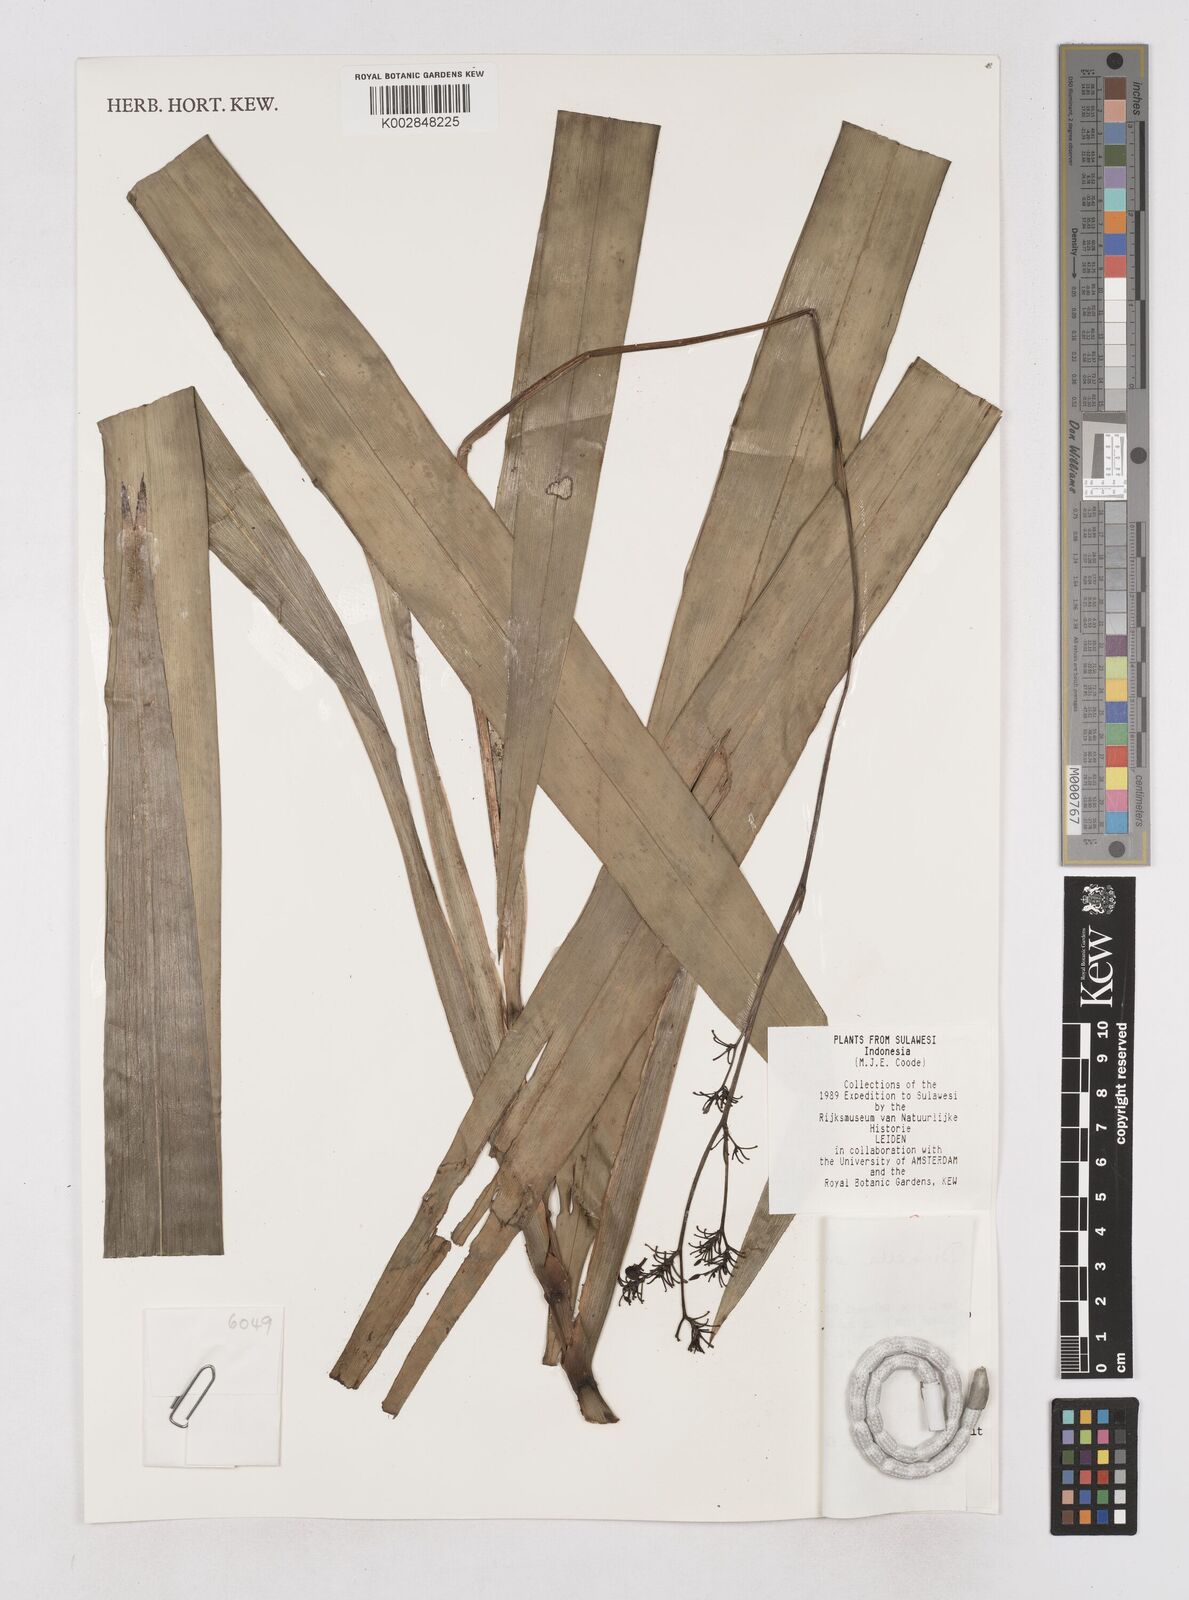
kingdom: Plantae
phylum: Tracheophyta
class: Liliopsida
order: Asparagales
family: Asphodelaceae
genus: Dianella
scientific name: Dianella ensifolia
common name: New zealand lilyplant
